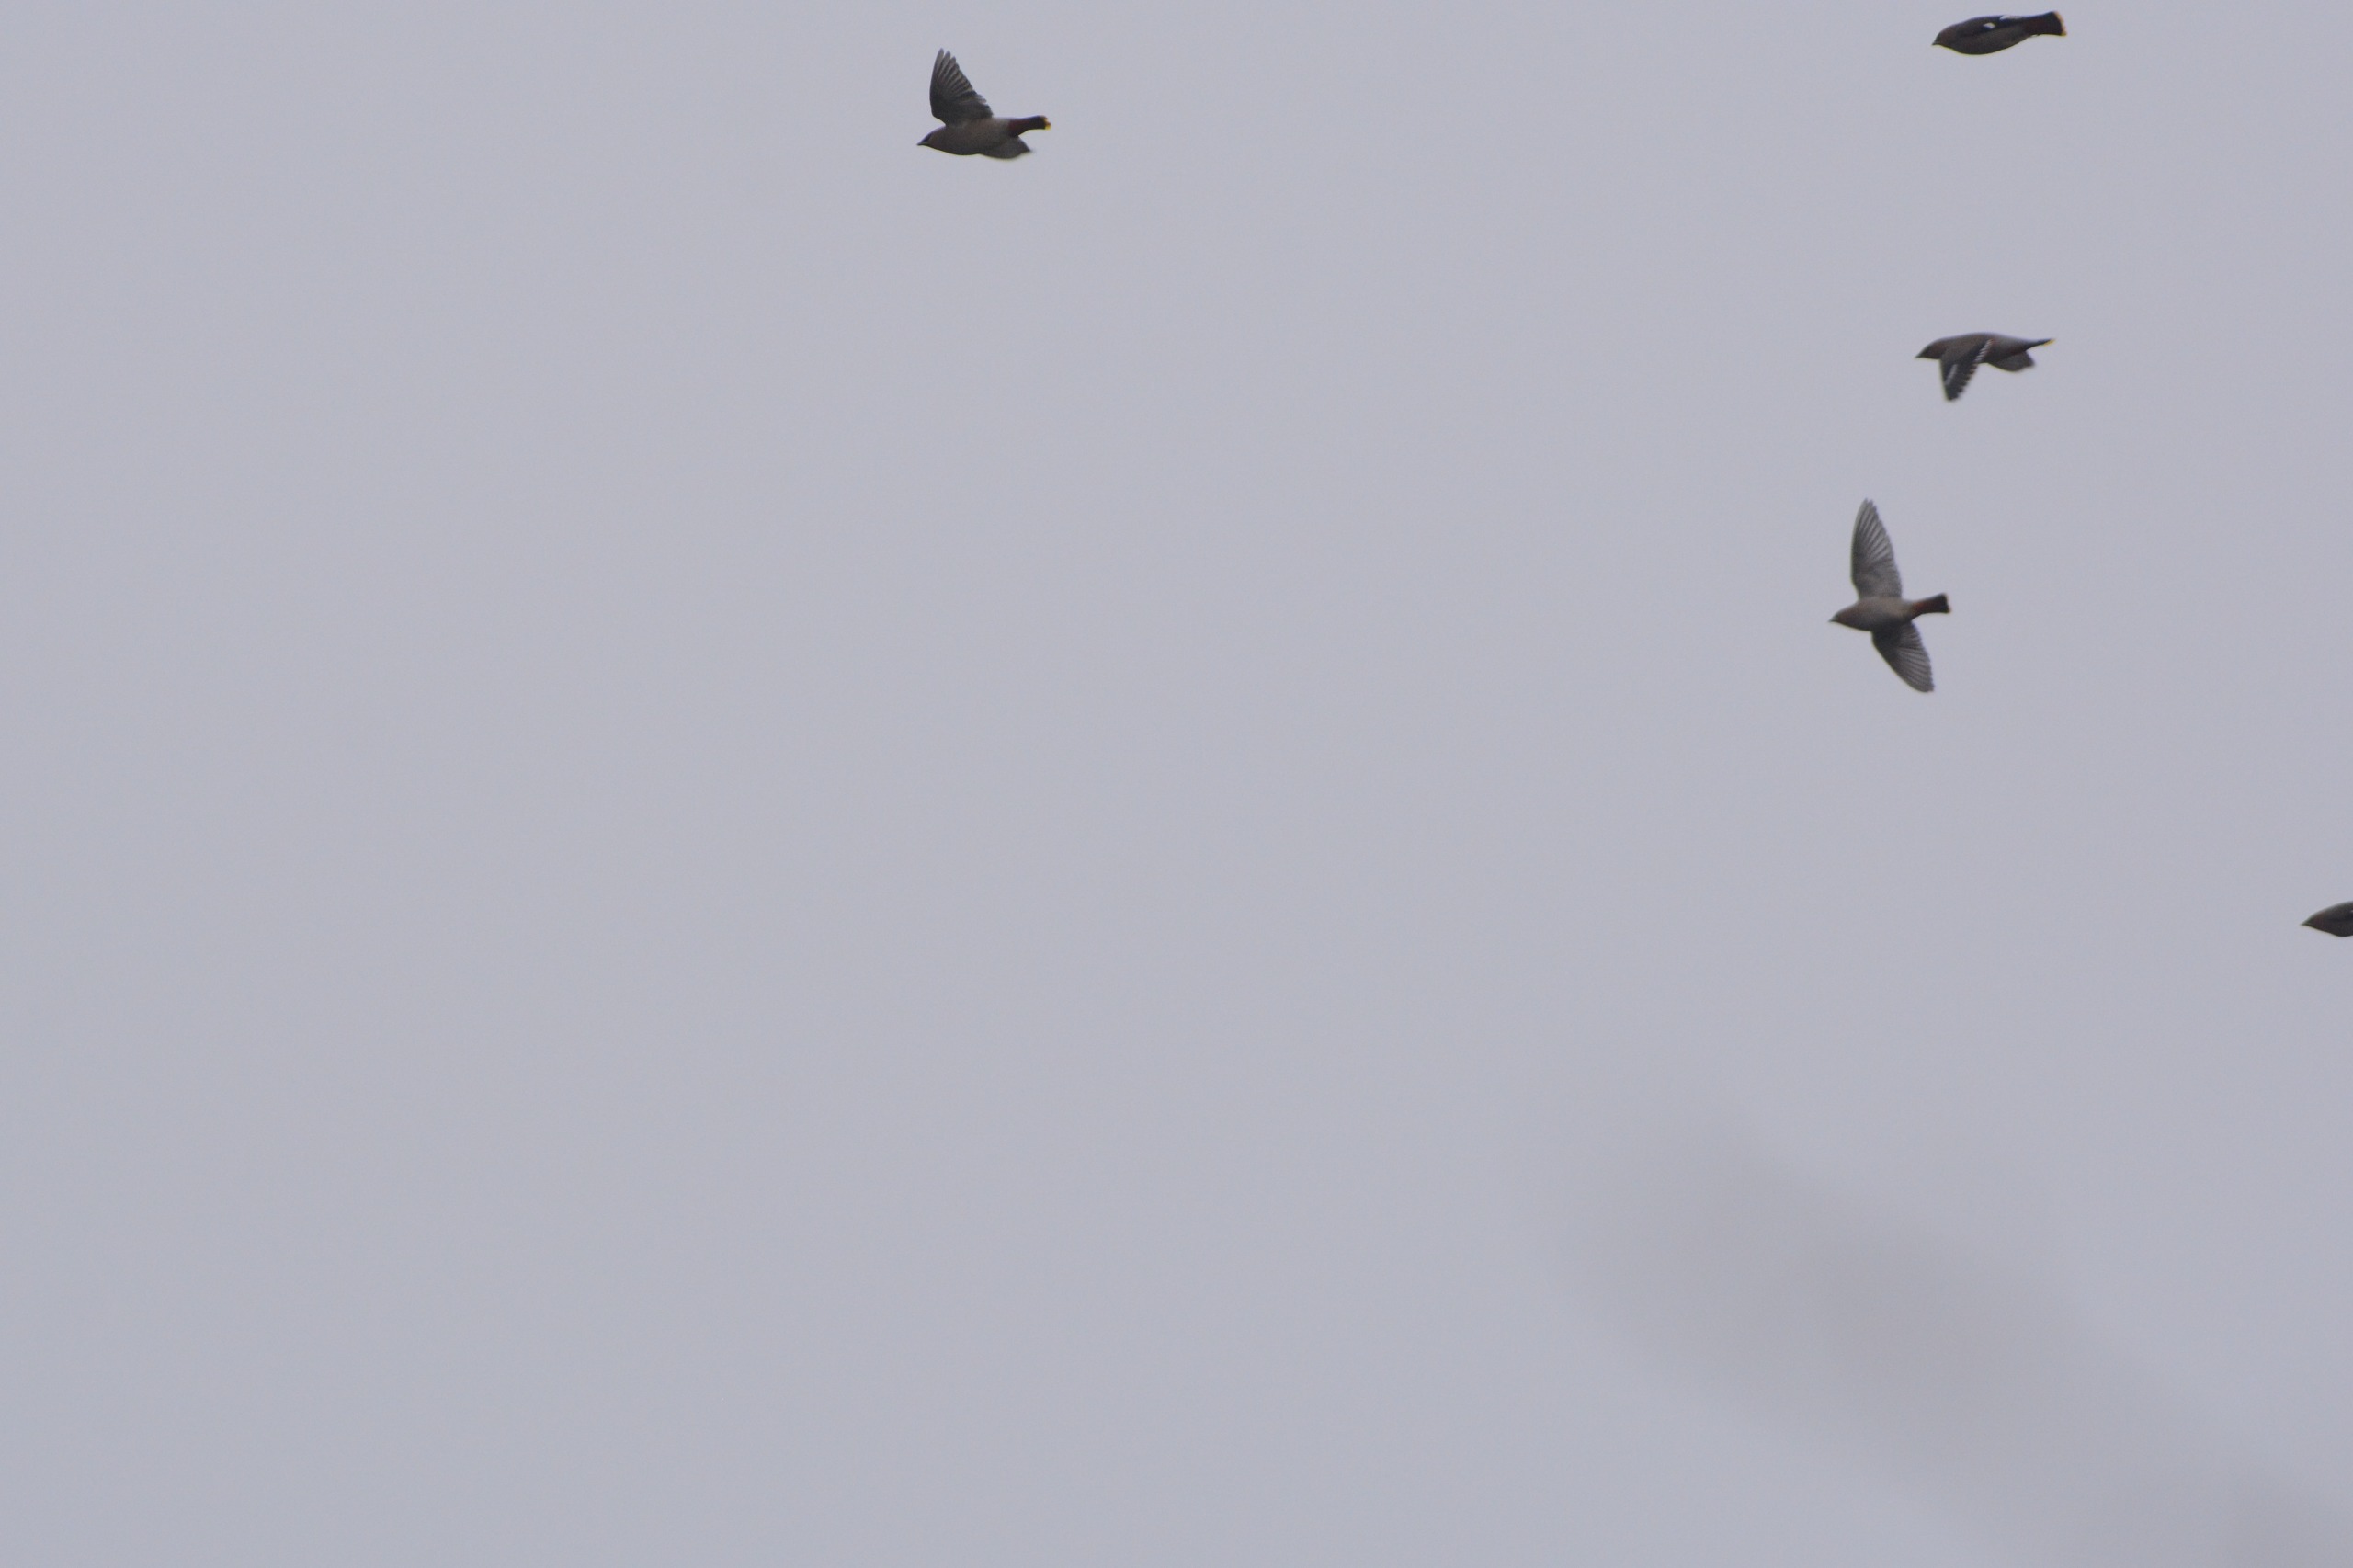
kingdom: Animalia
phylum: Chordata
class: Aves
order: Passeriformes
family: Bombycillidae
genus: Bombycilla
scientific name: Bombycilla garrulus
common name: Silkehale
